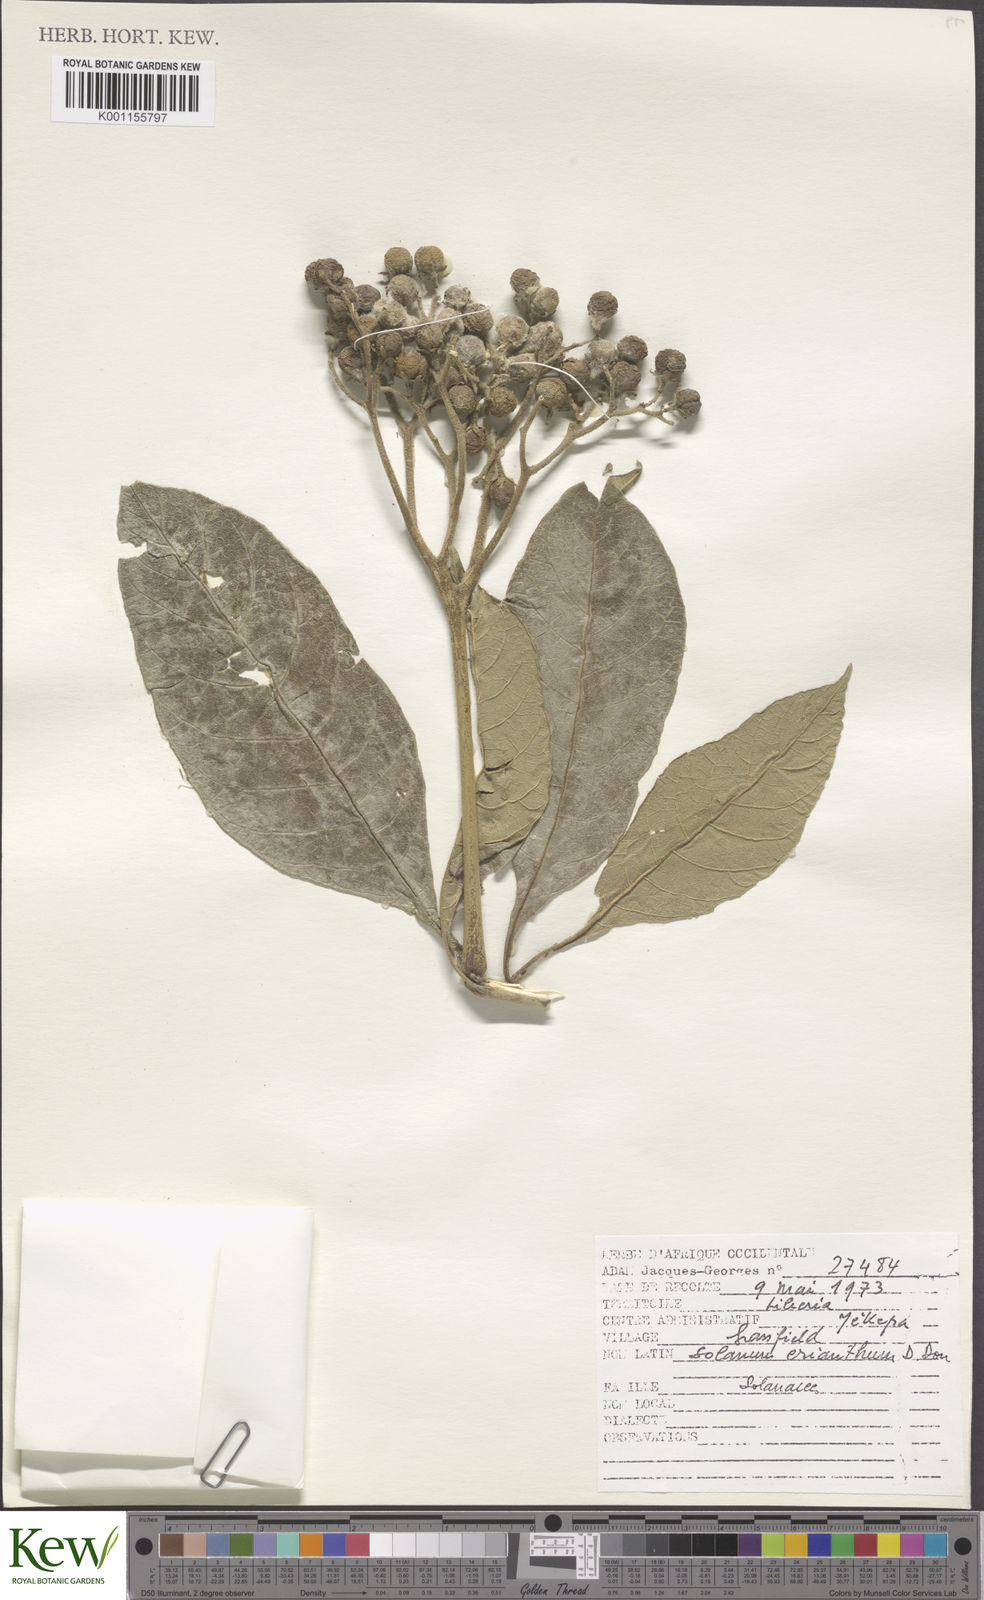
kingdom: Plantae
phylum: Tracheophyta
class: Magnoliopsida
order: Solanales
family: Solanaceae
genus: Solanum
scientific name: Solanum rugosum
